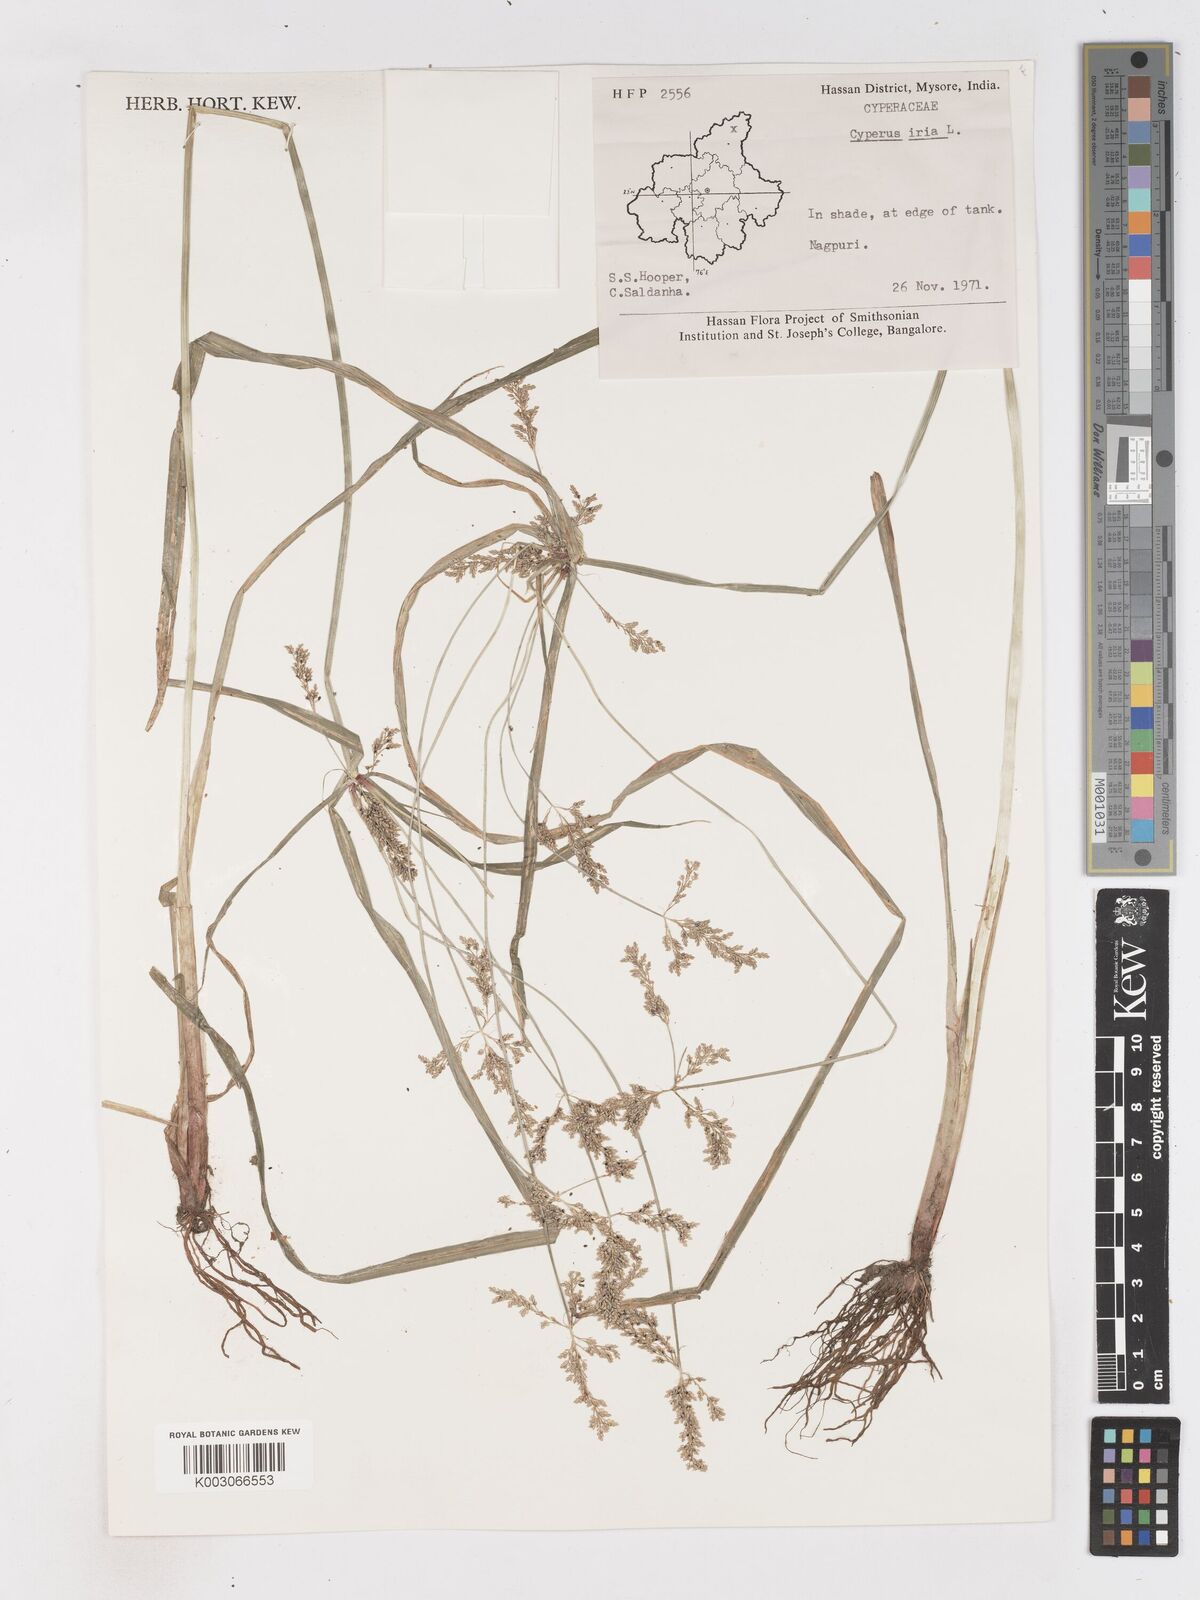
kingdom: Plantae
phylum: Tracheophyta
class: Liliopsida
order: Poales
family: Cyperaceae
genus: Cyperus
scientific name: Cyperus iria
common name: Ricefield flatsedge
